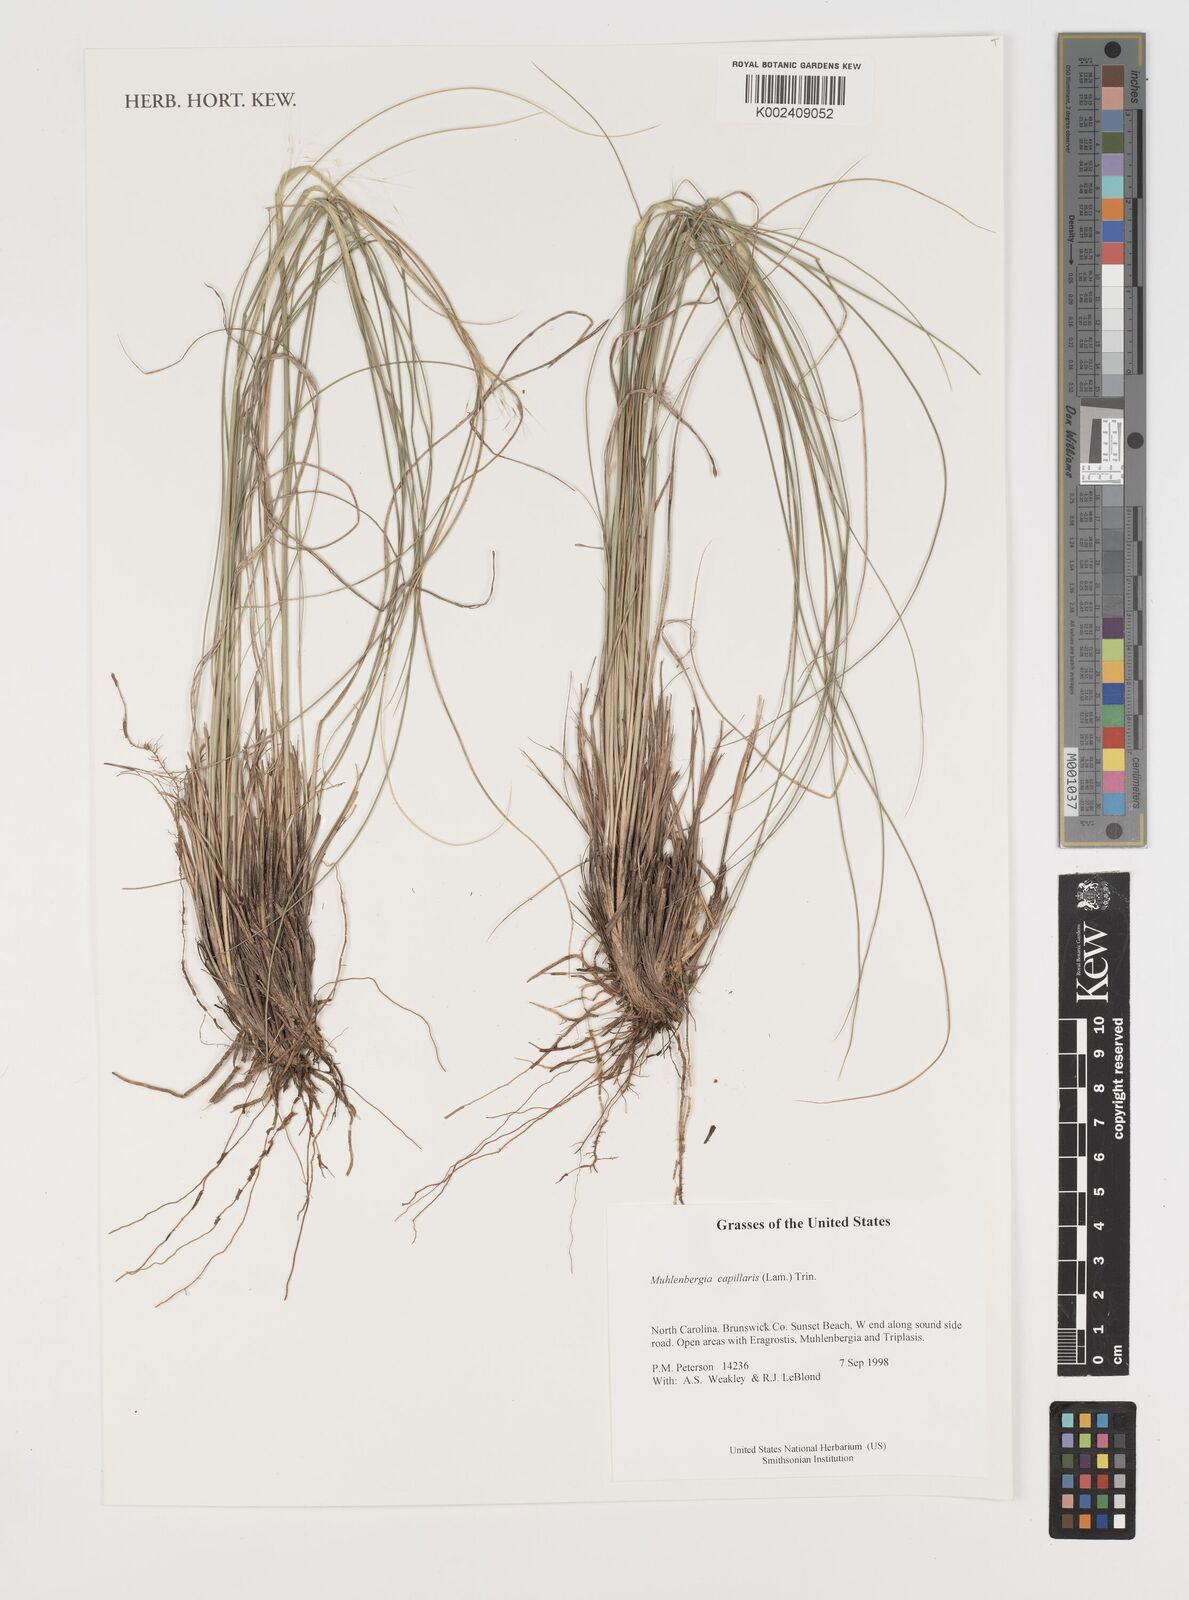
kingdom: Plantae
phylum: Tracheophyta
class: Liliopsida
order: Poales
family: Poaceae
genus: Muhlenbergia
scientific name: Muhlenbergia capillaris
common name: Purple grass
